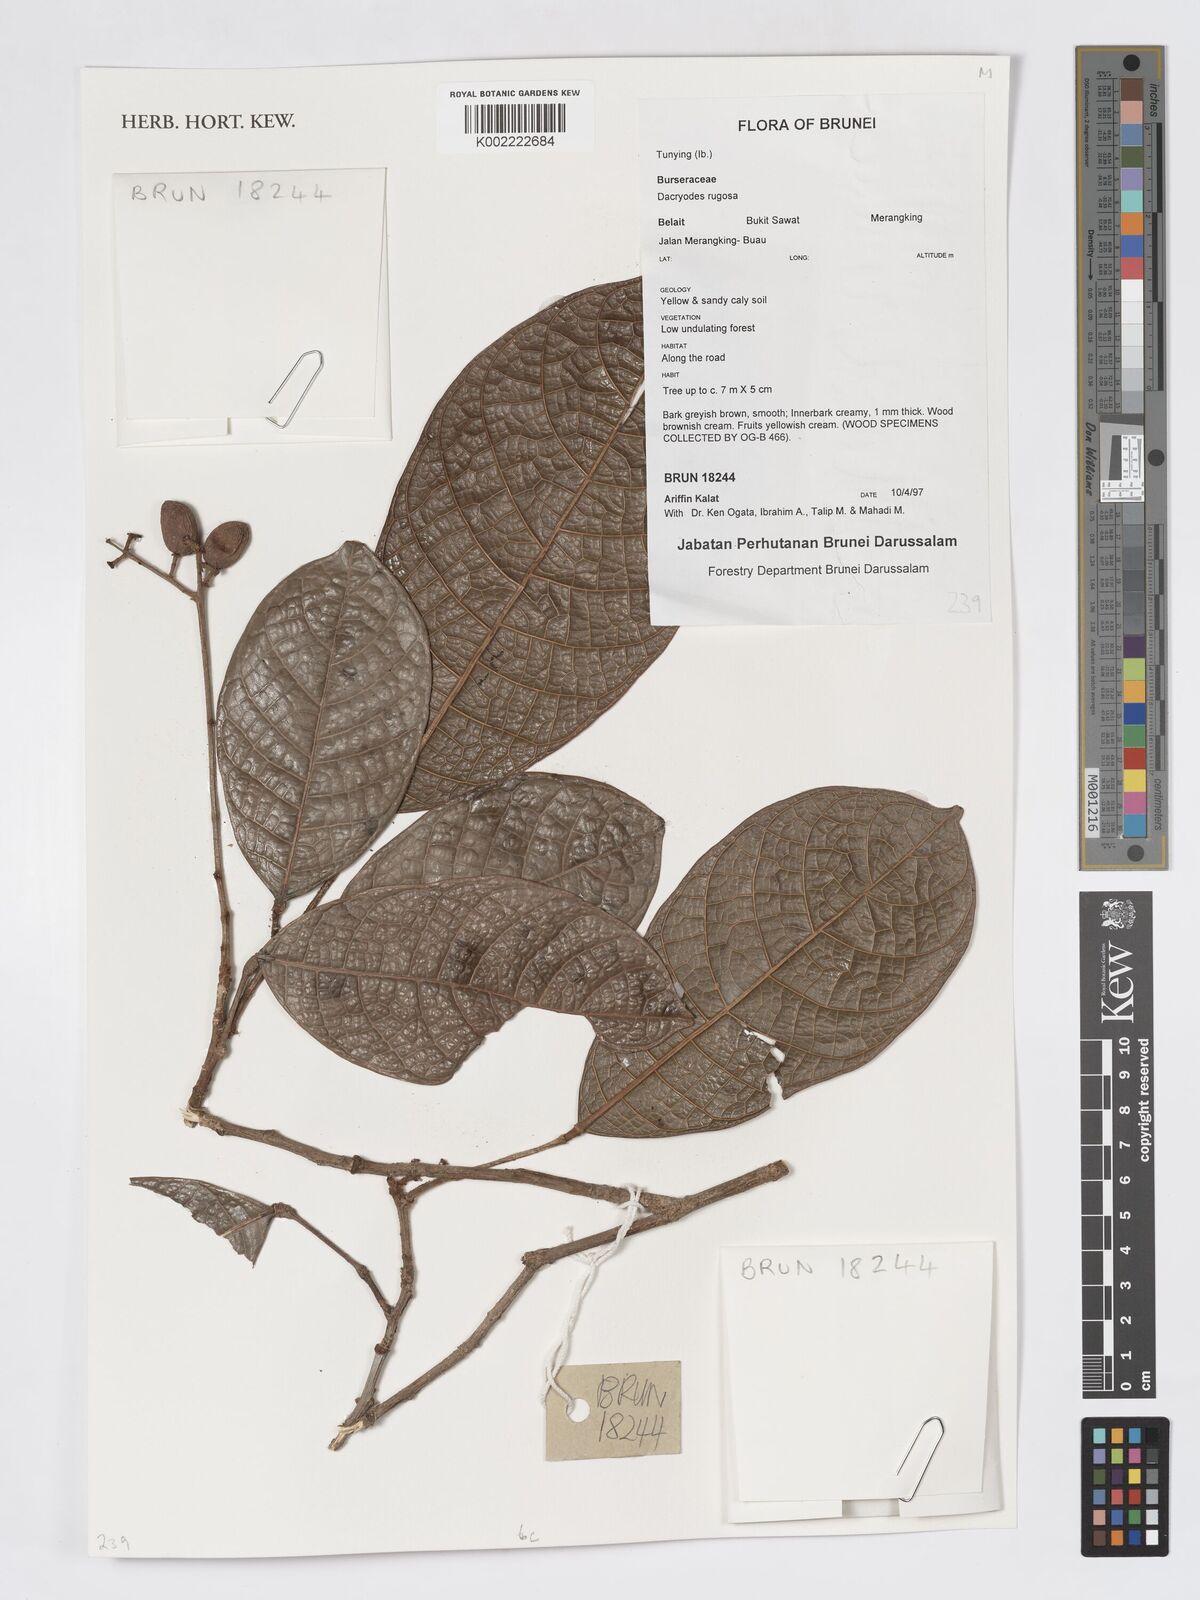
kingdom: Plantae
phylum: Tracheophyta
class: Magnoliopsida
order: Sapindales
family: Burseraceae
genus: Dacryodes
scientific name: Dacryodes rugosa
